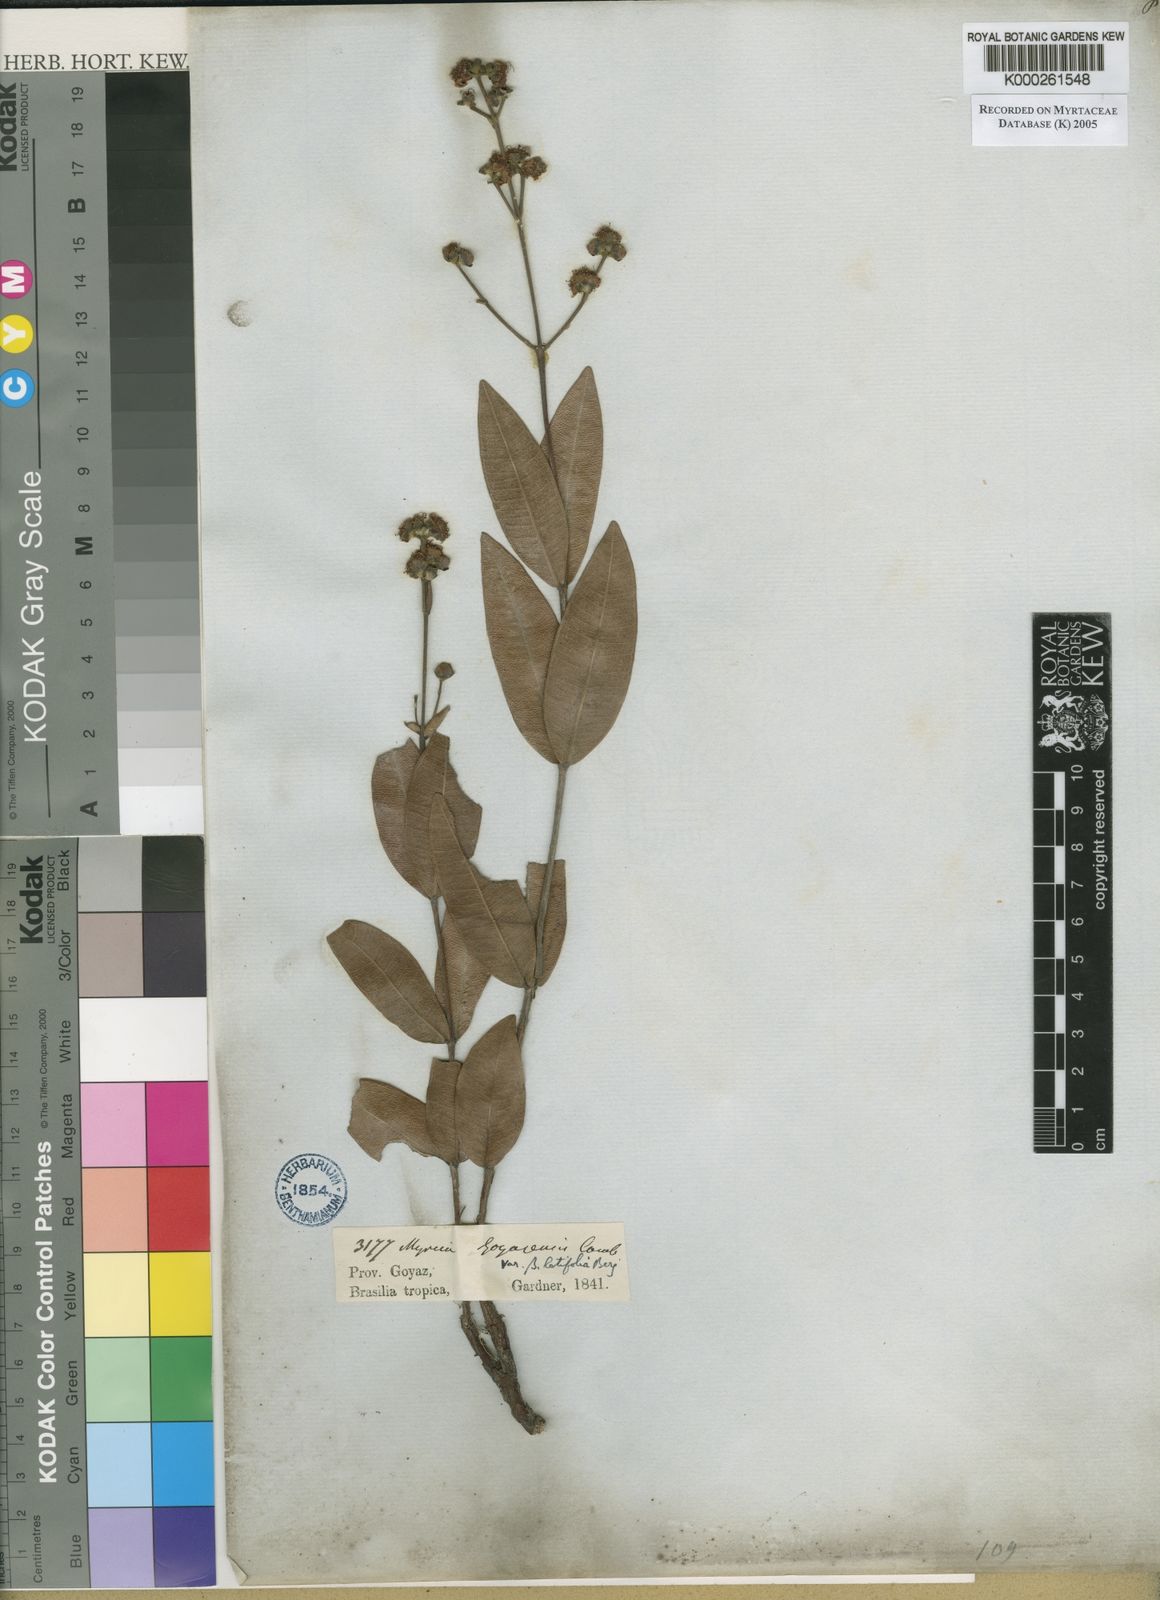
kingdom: Plantae
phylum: Tracheophyta
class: Magnoliopsida
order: Myrtales
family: Myrtaceae
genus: Myrcia
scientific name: Myrcia goyazensis
